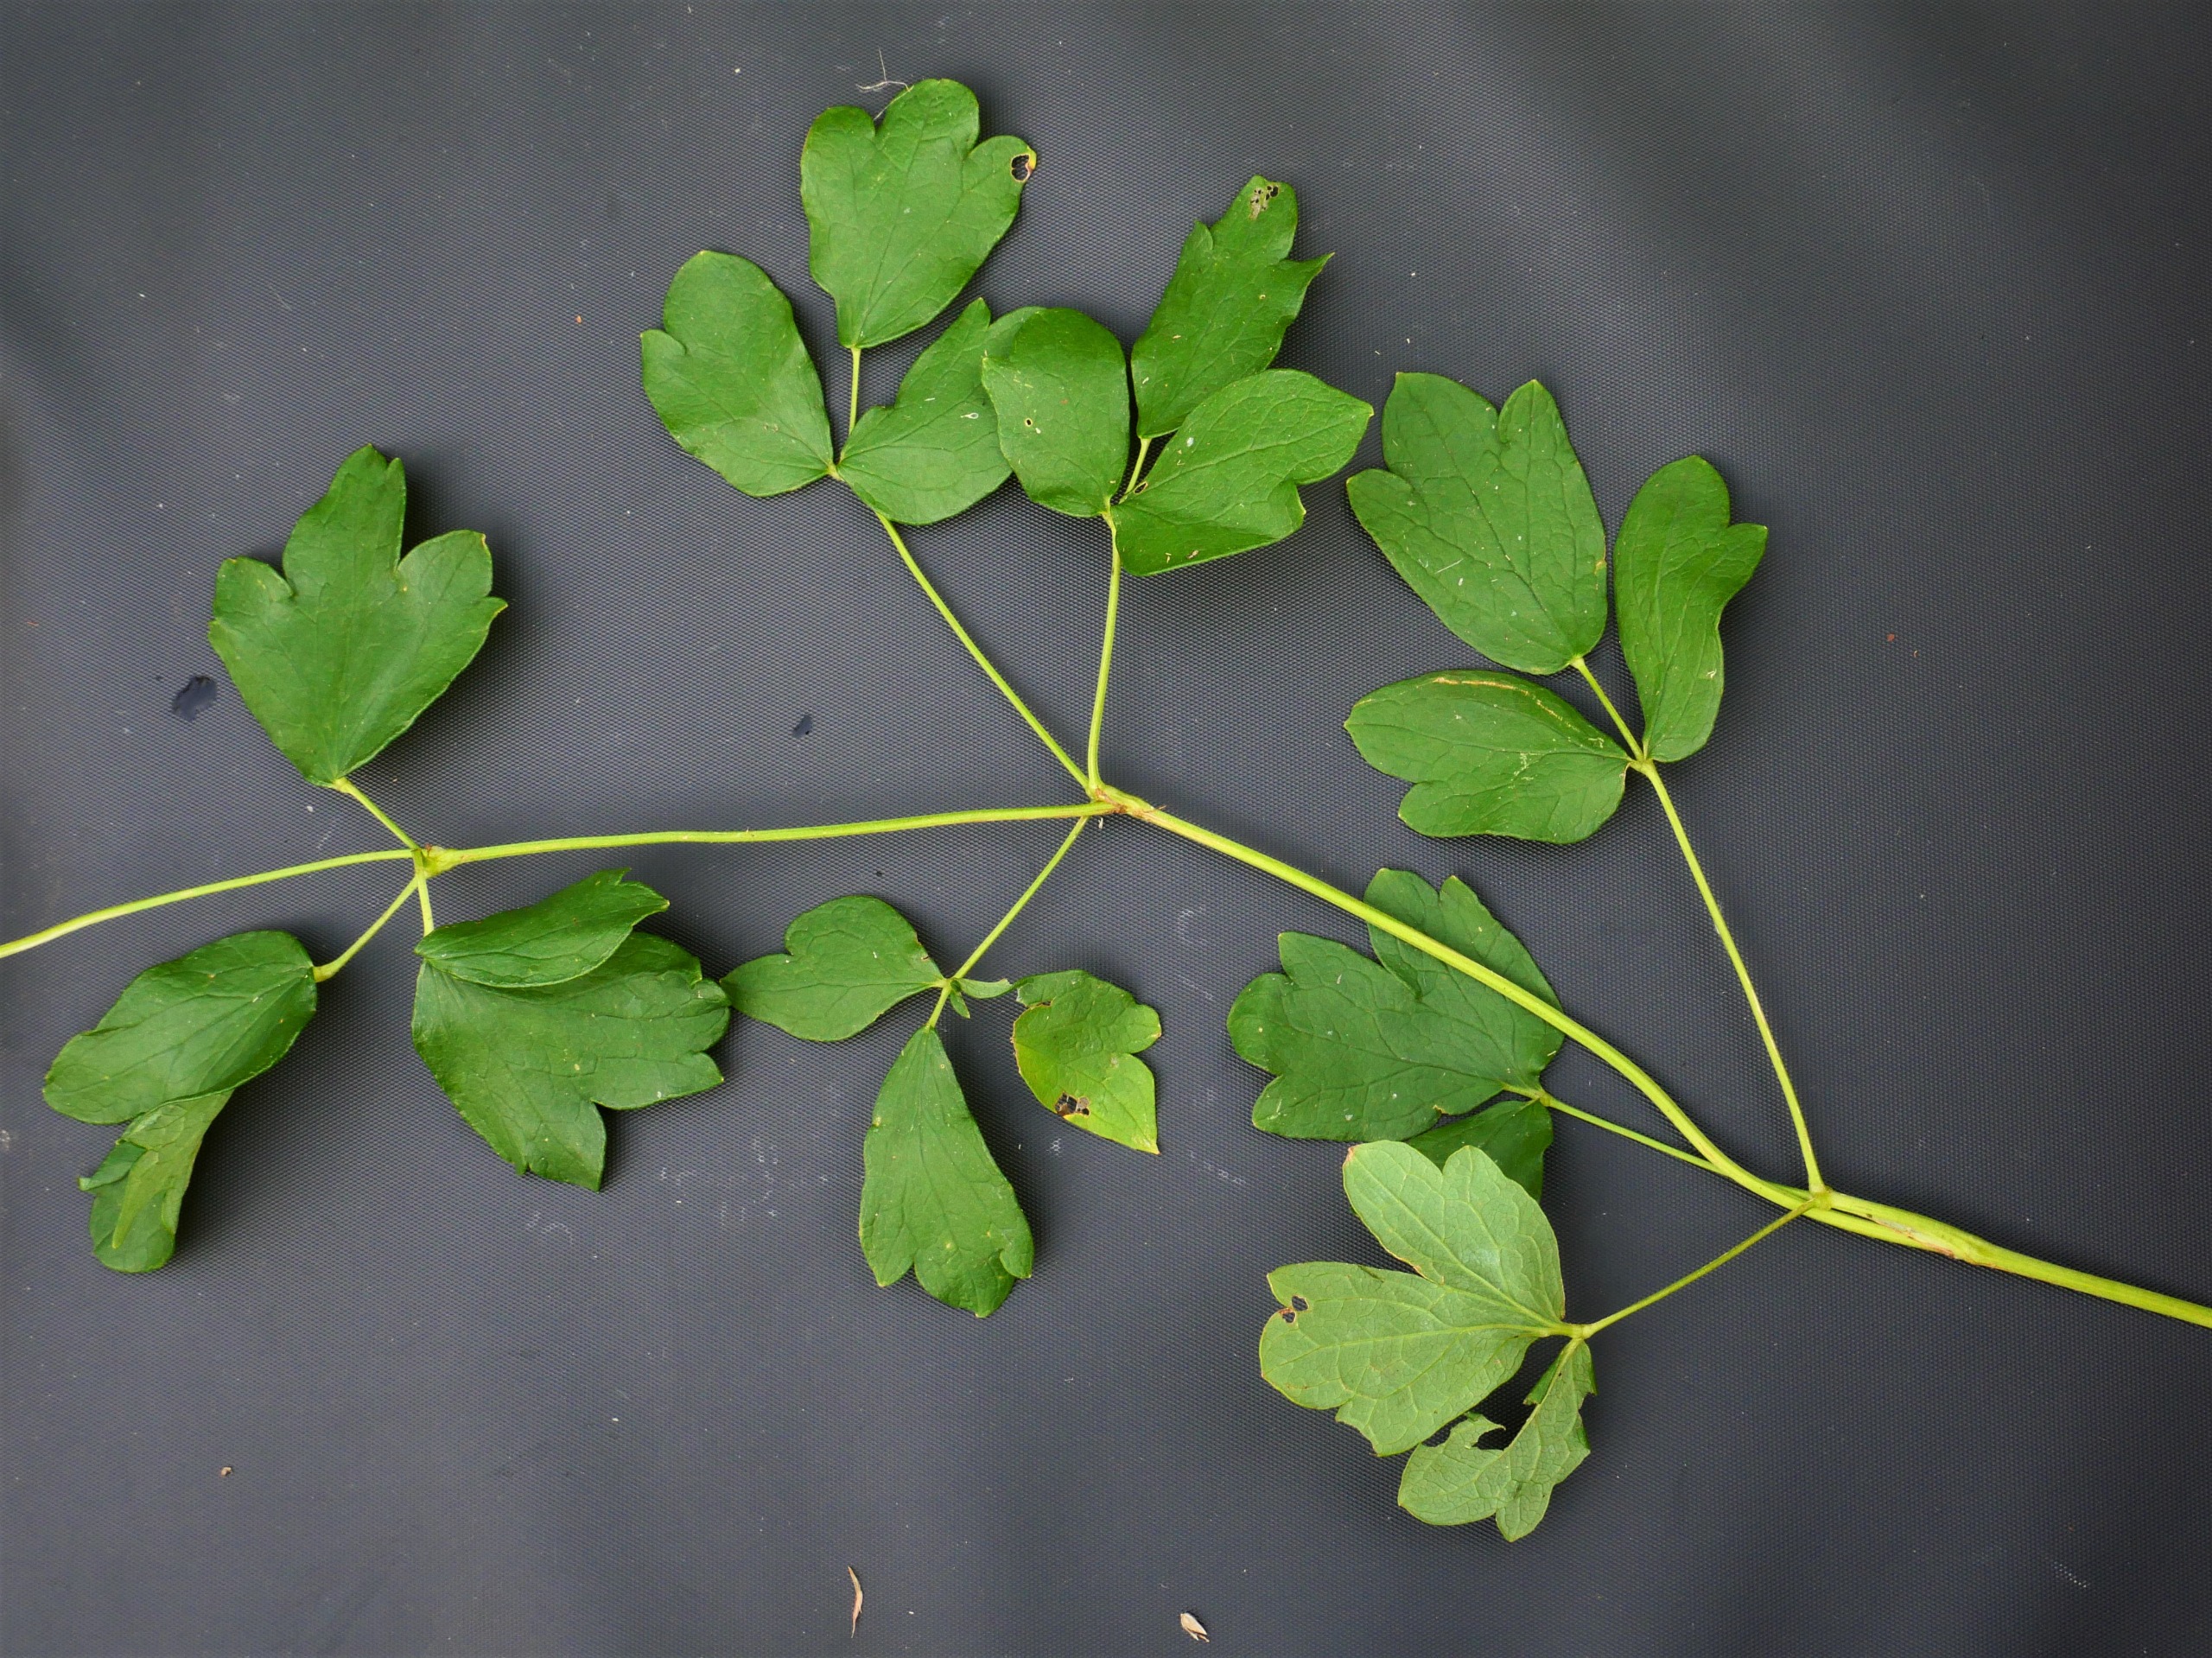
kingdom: Plantae
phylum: Tracheophyta
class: Magnoliopsida
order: Ranunculales
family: Ranunculaceae
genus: Thalictrum
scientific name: Thalictrum flavum
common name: Gul frøstjerne
